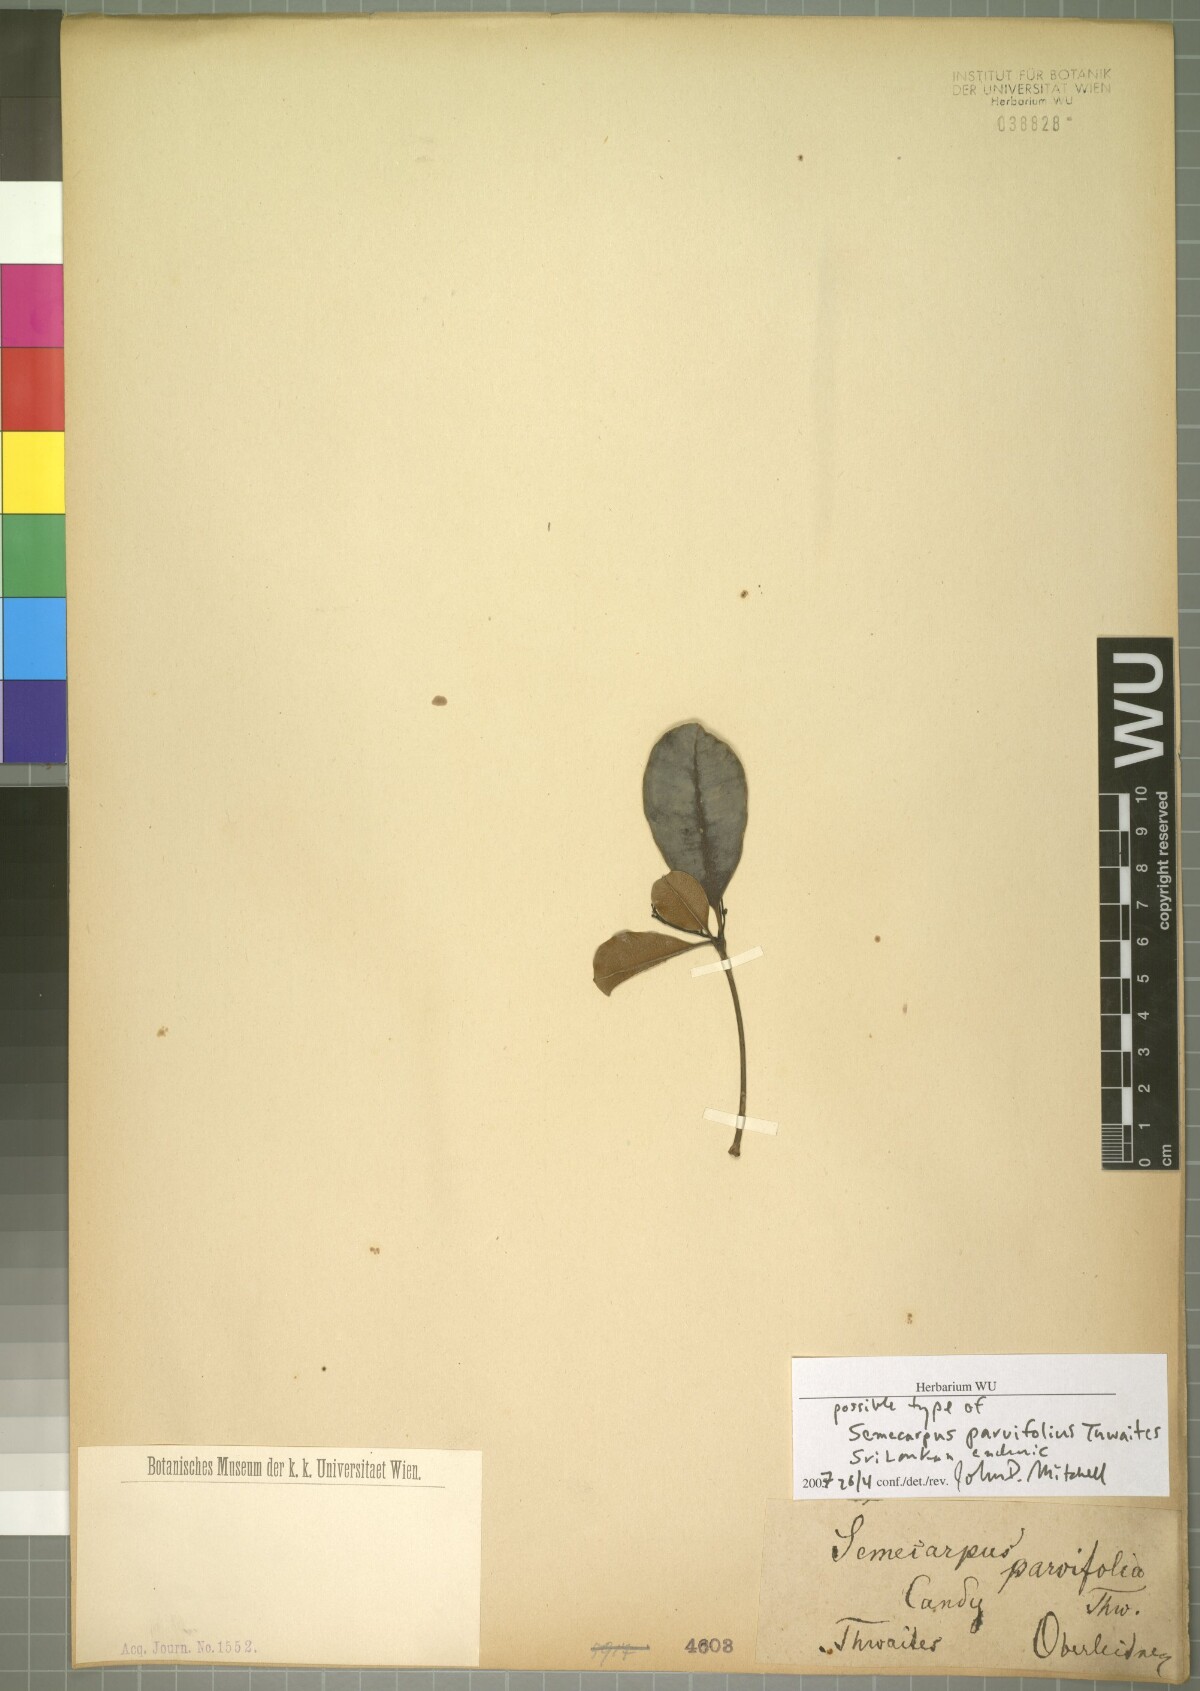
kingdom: Plantae
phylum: Tracheophyta
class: Magnoliopsida
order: Sapindales
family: Anacardiaceae
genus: Semecarpus
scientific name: Semecarpus parvifolius
